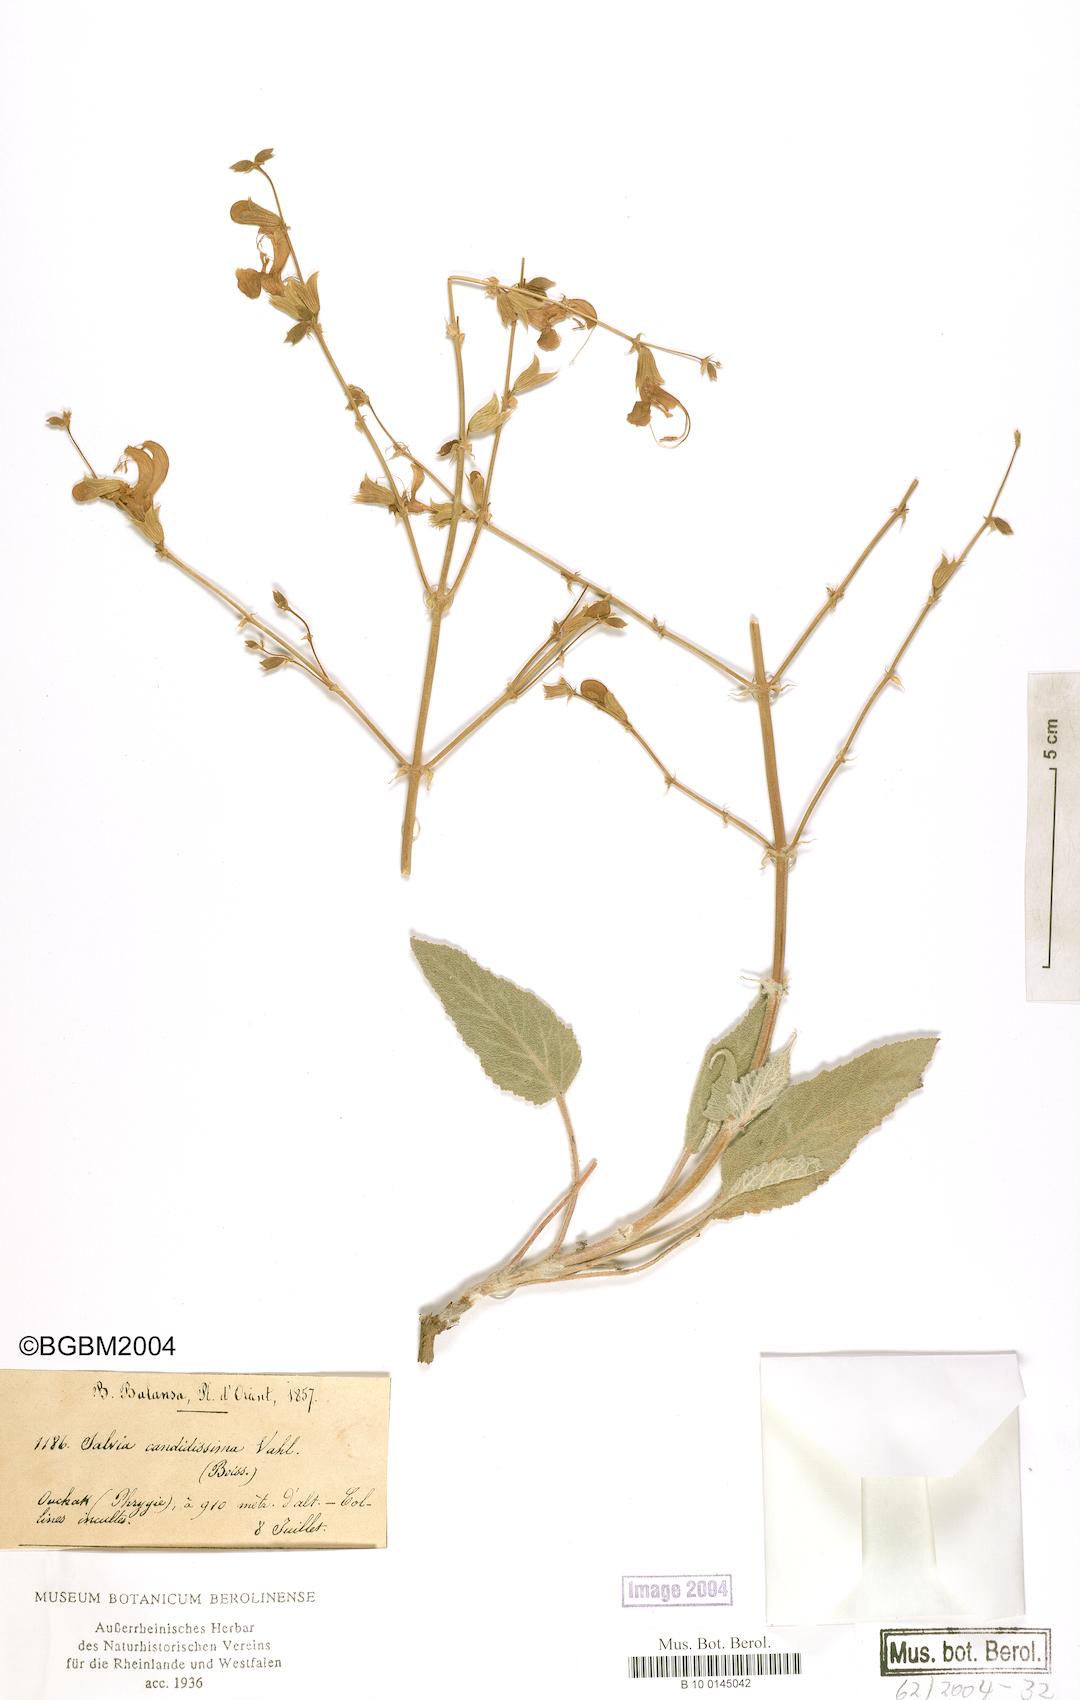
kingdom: Plantae
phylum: Tracheophyta
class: Magnoliopsida
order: Lamiales
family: Lamiaceae
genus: Salvia
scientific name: Salvia candidissima
